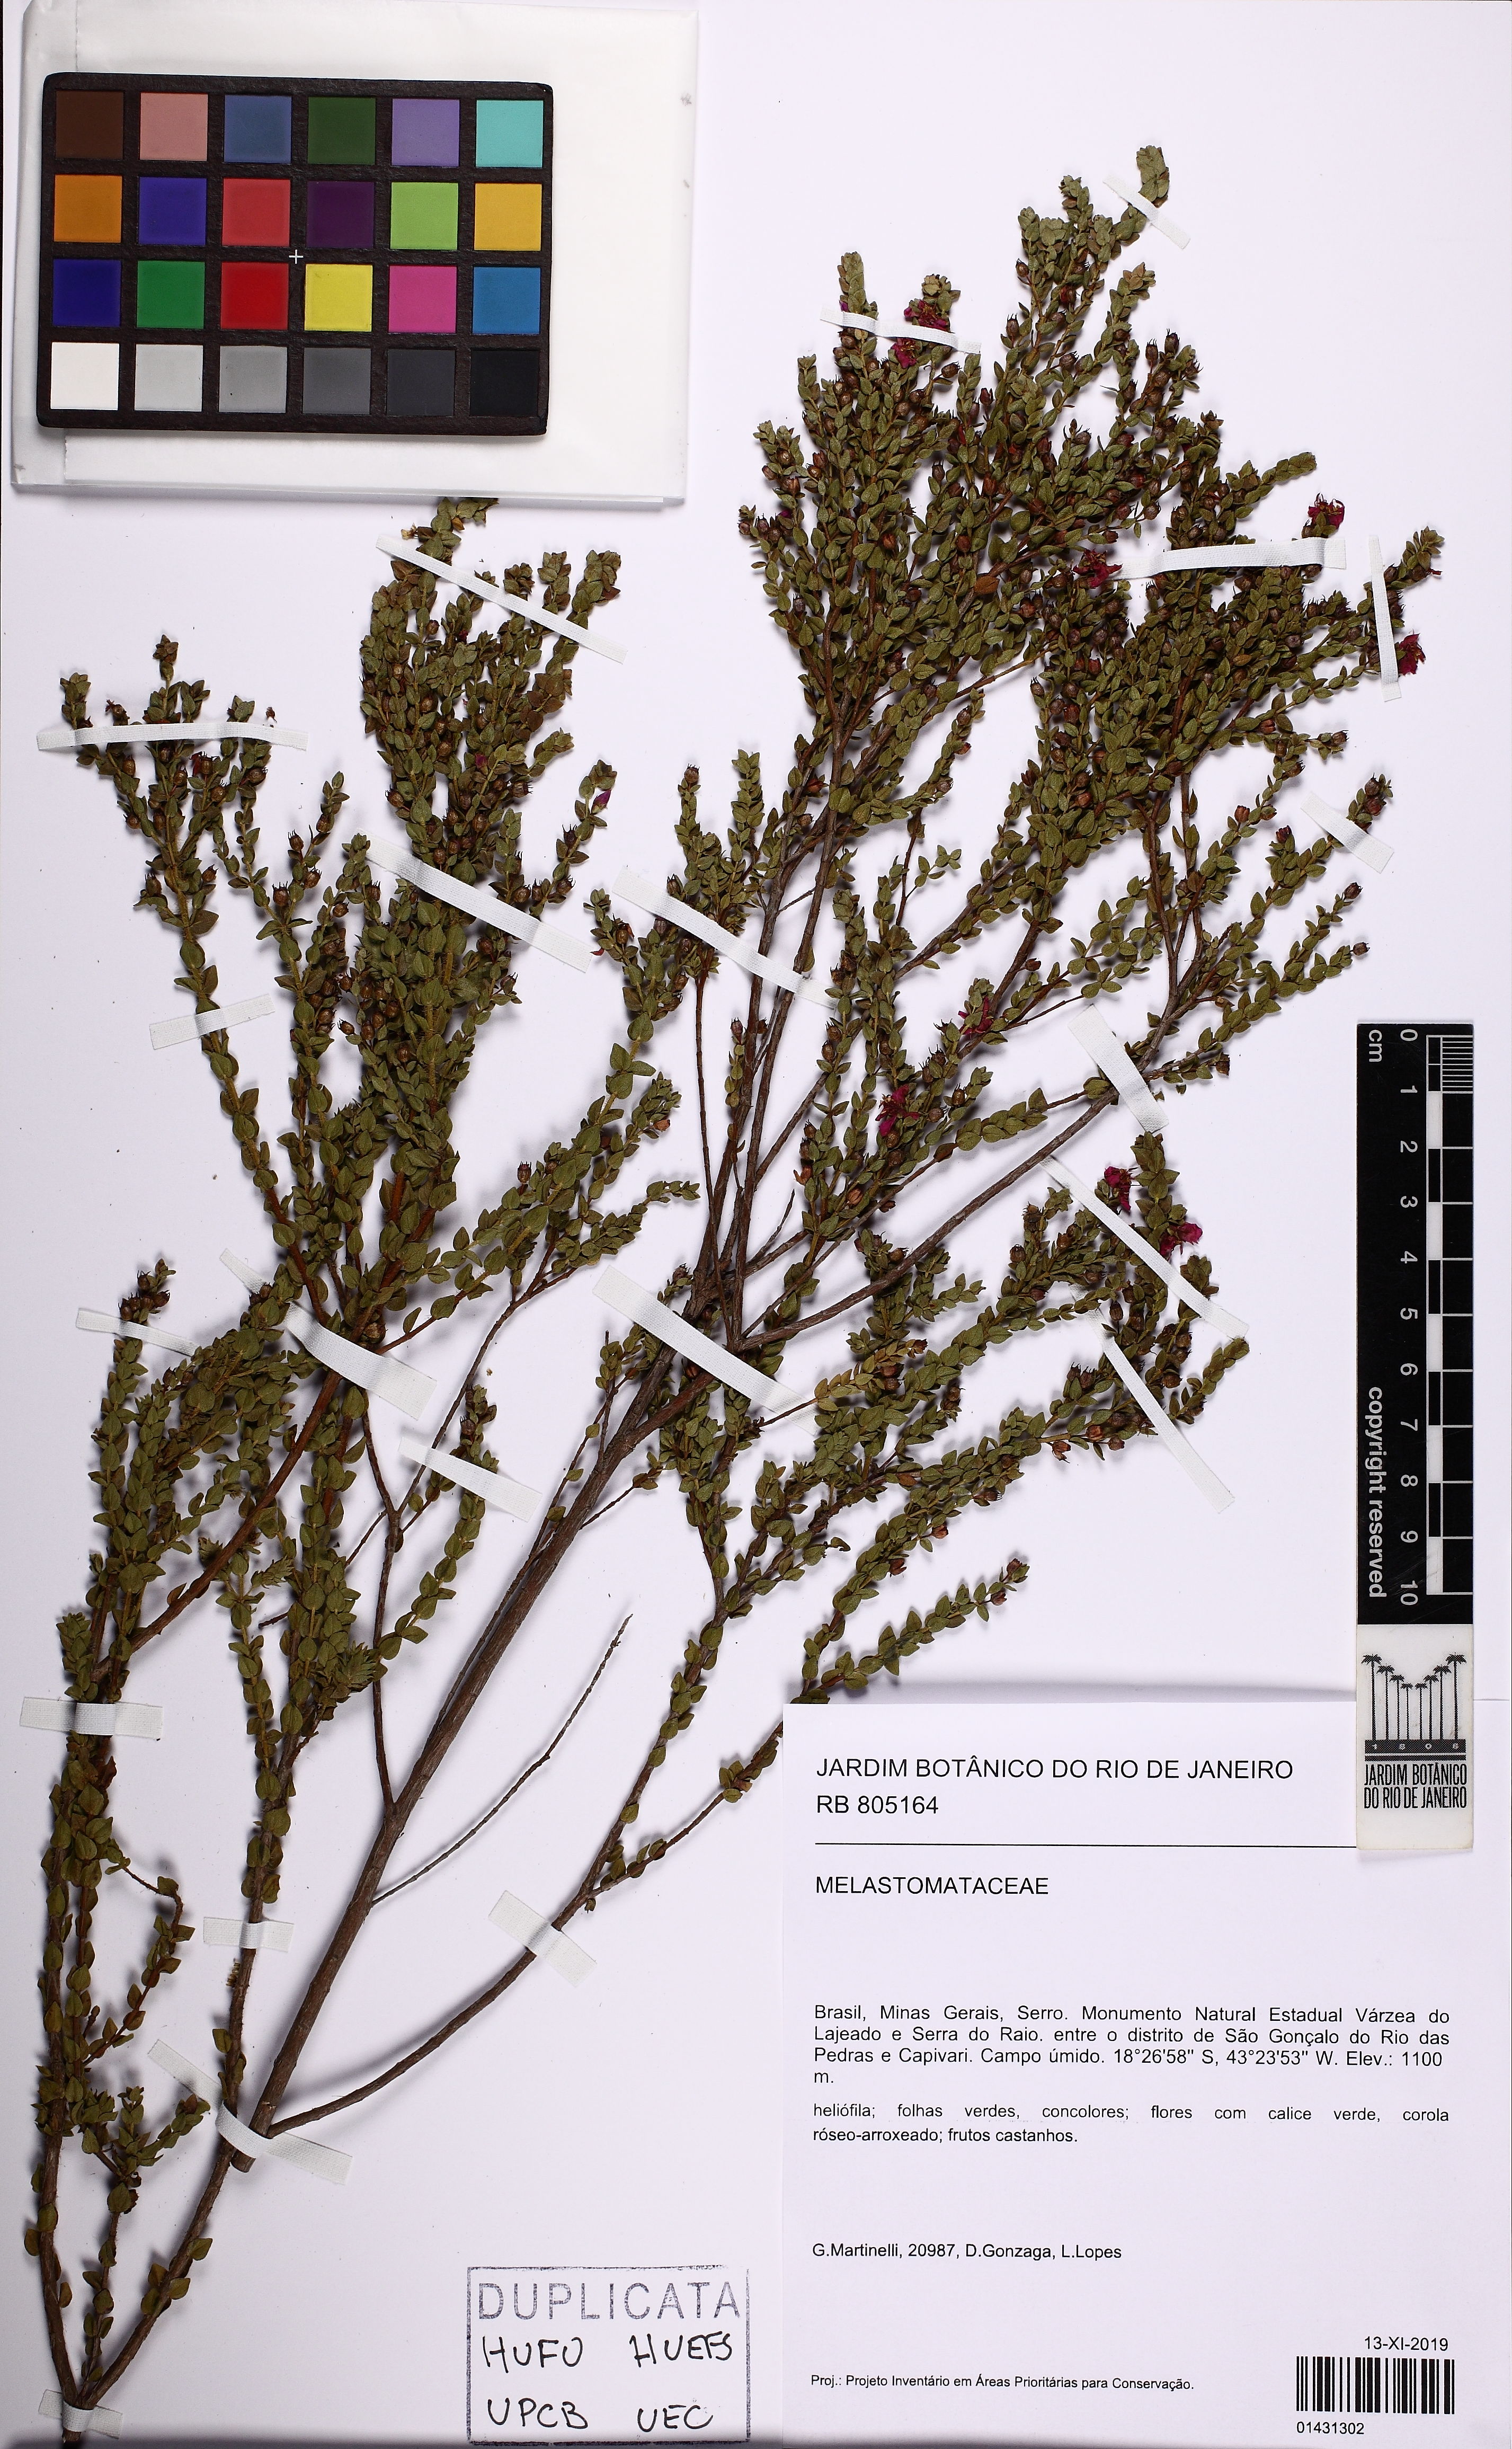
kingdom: Plantae
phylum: Tracheophyta
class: Magnoliopsida
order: Myrtales
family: Melastomataceae
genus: Microlicia
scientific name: Microlicia confertiflora
